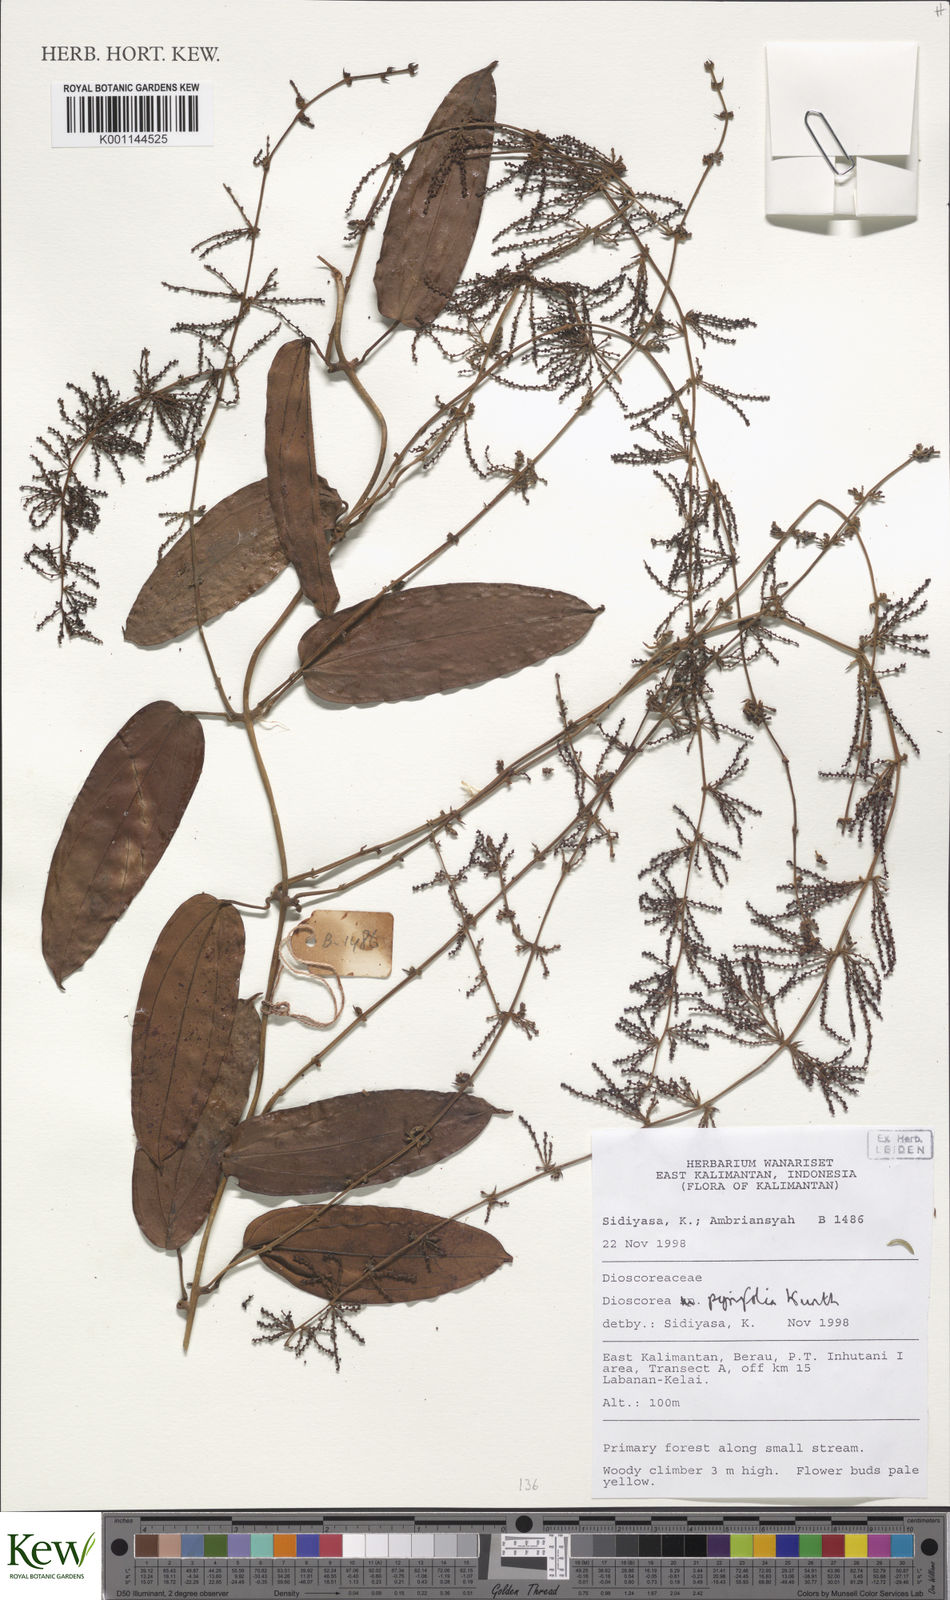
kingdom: Plantae
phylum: Tracheophyta
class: Liliopsida
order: Dioscoreales
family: Dioscoreaceae
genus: Dioscorea
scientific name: Dioscorea pyrifolia
